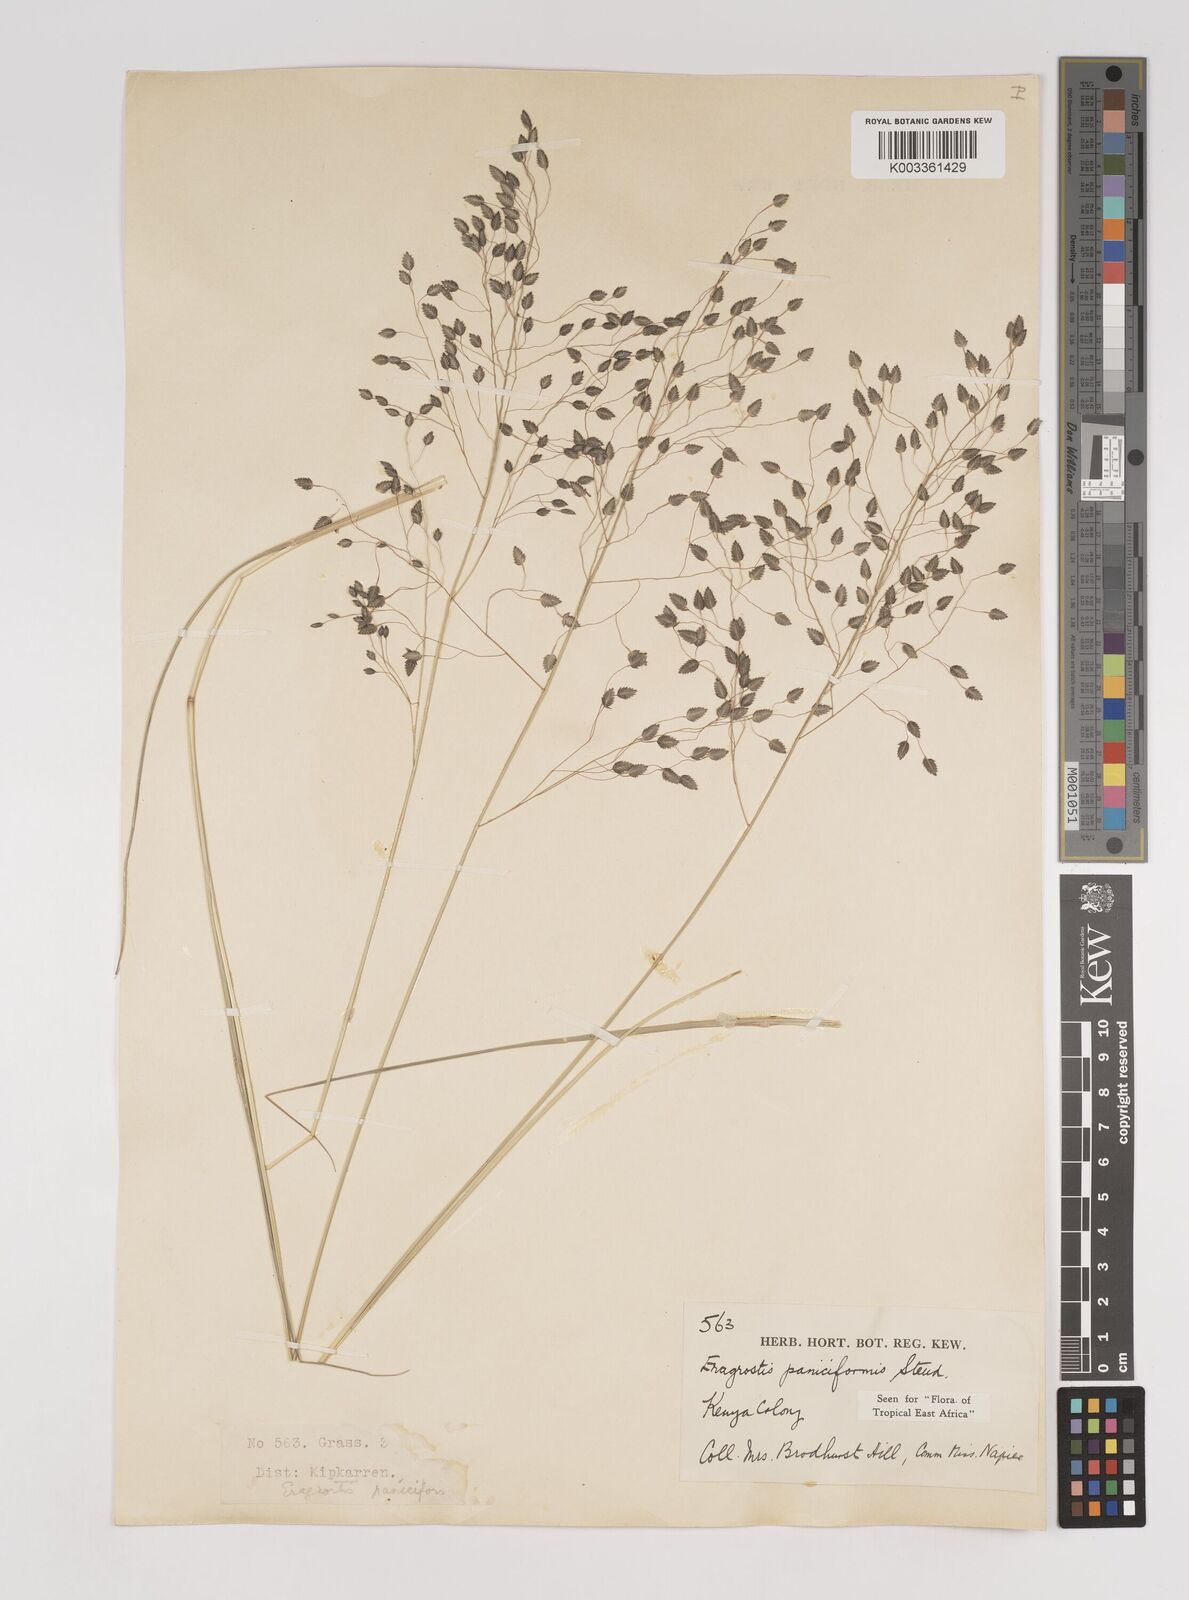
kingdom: Plantae
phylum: Tracheophyta
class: Liliopsida
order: Poales
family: Poaceae
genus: Eragrostis
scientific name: Eragrostis paniciformis
